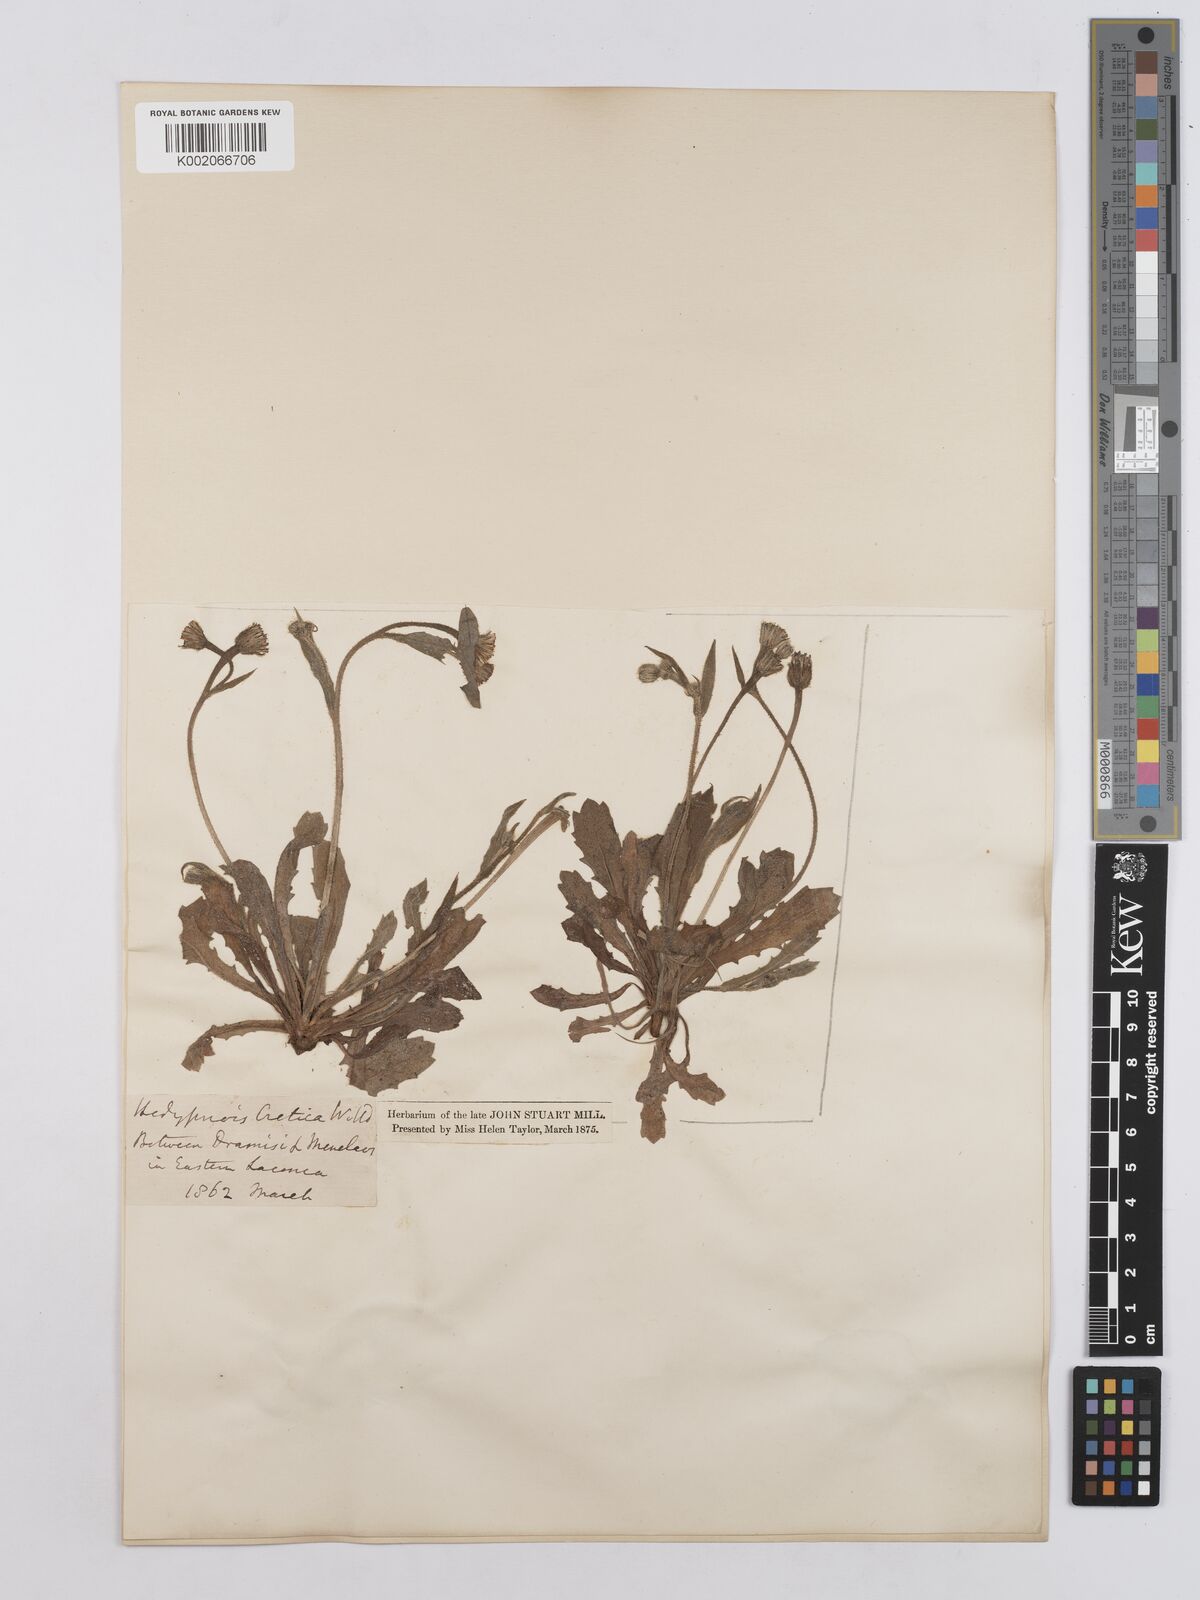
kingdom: Plantae
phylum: Tracheophyta
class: Magnoliopsida
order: Asterales
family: Asteraceae
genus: Hedypnois
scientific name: Hedypnois rhagadioloides
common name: Cretan weed
